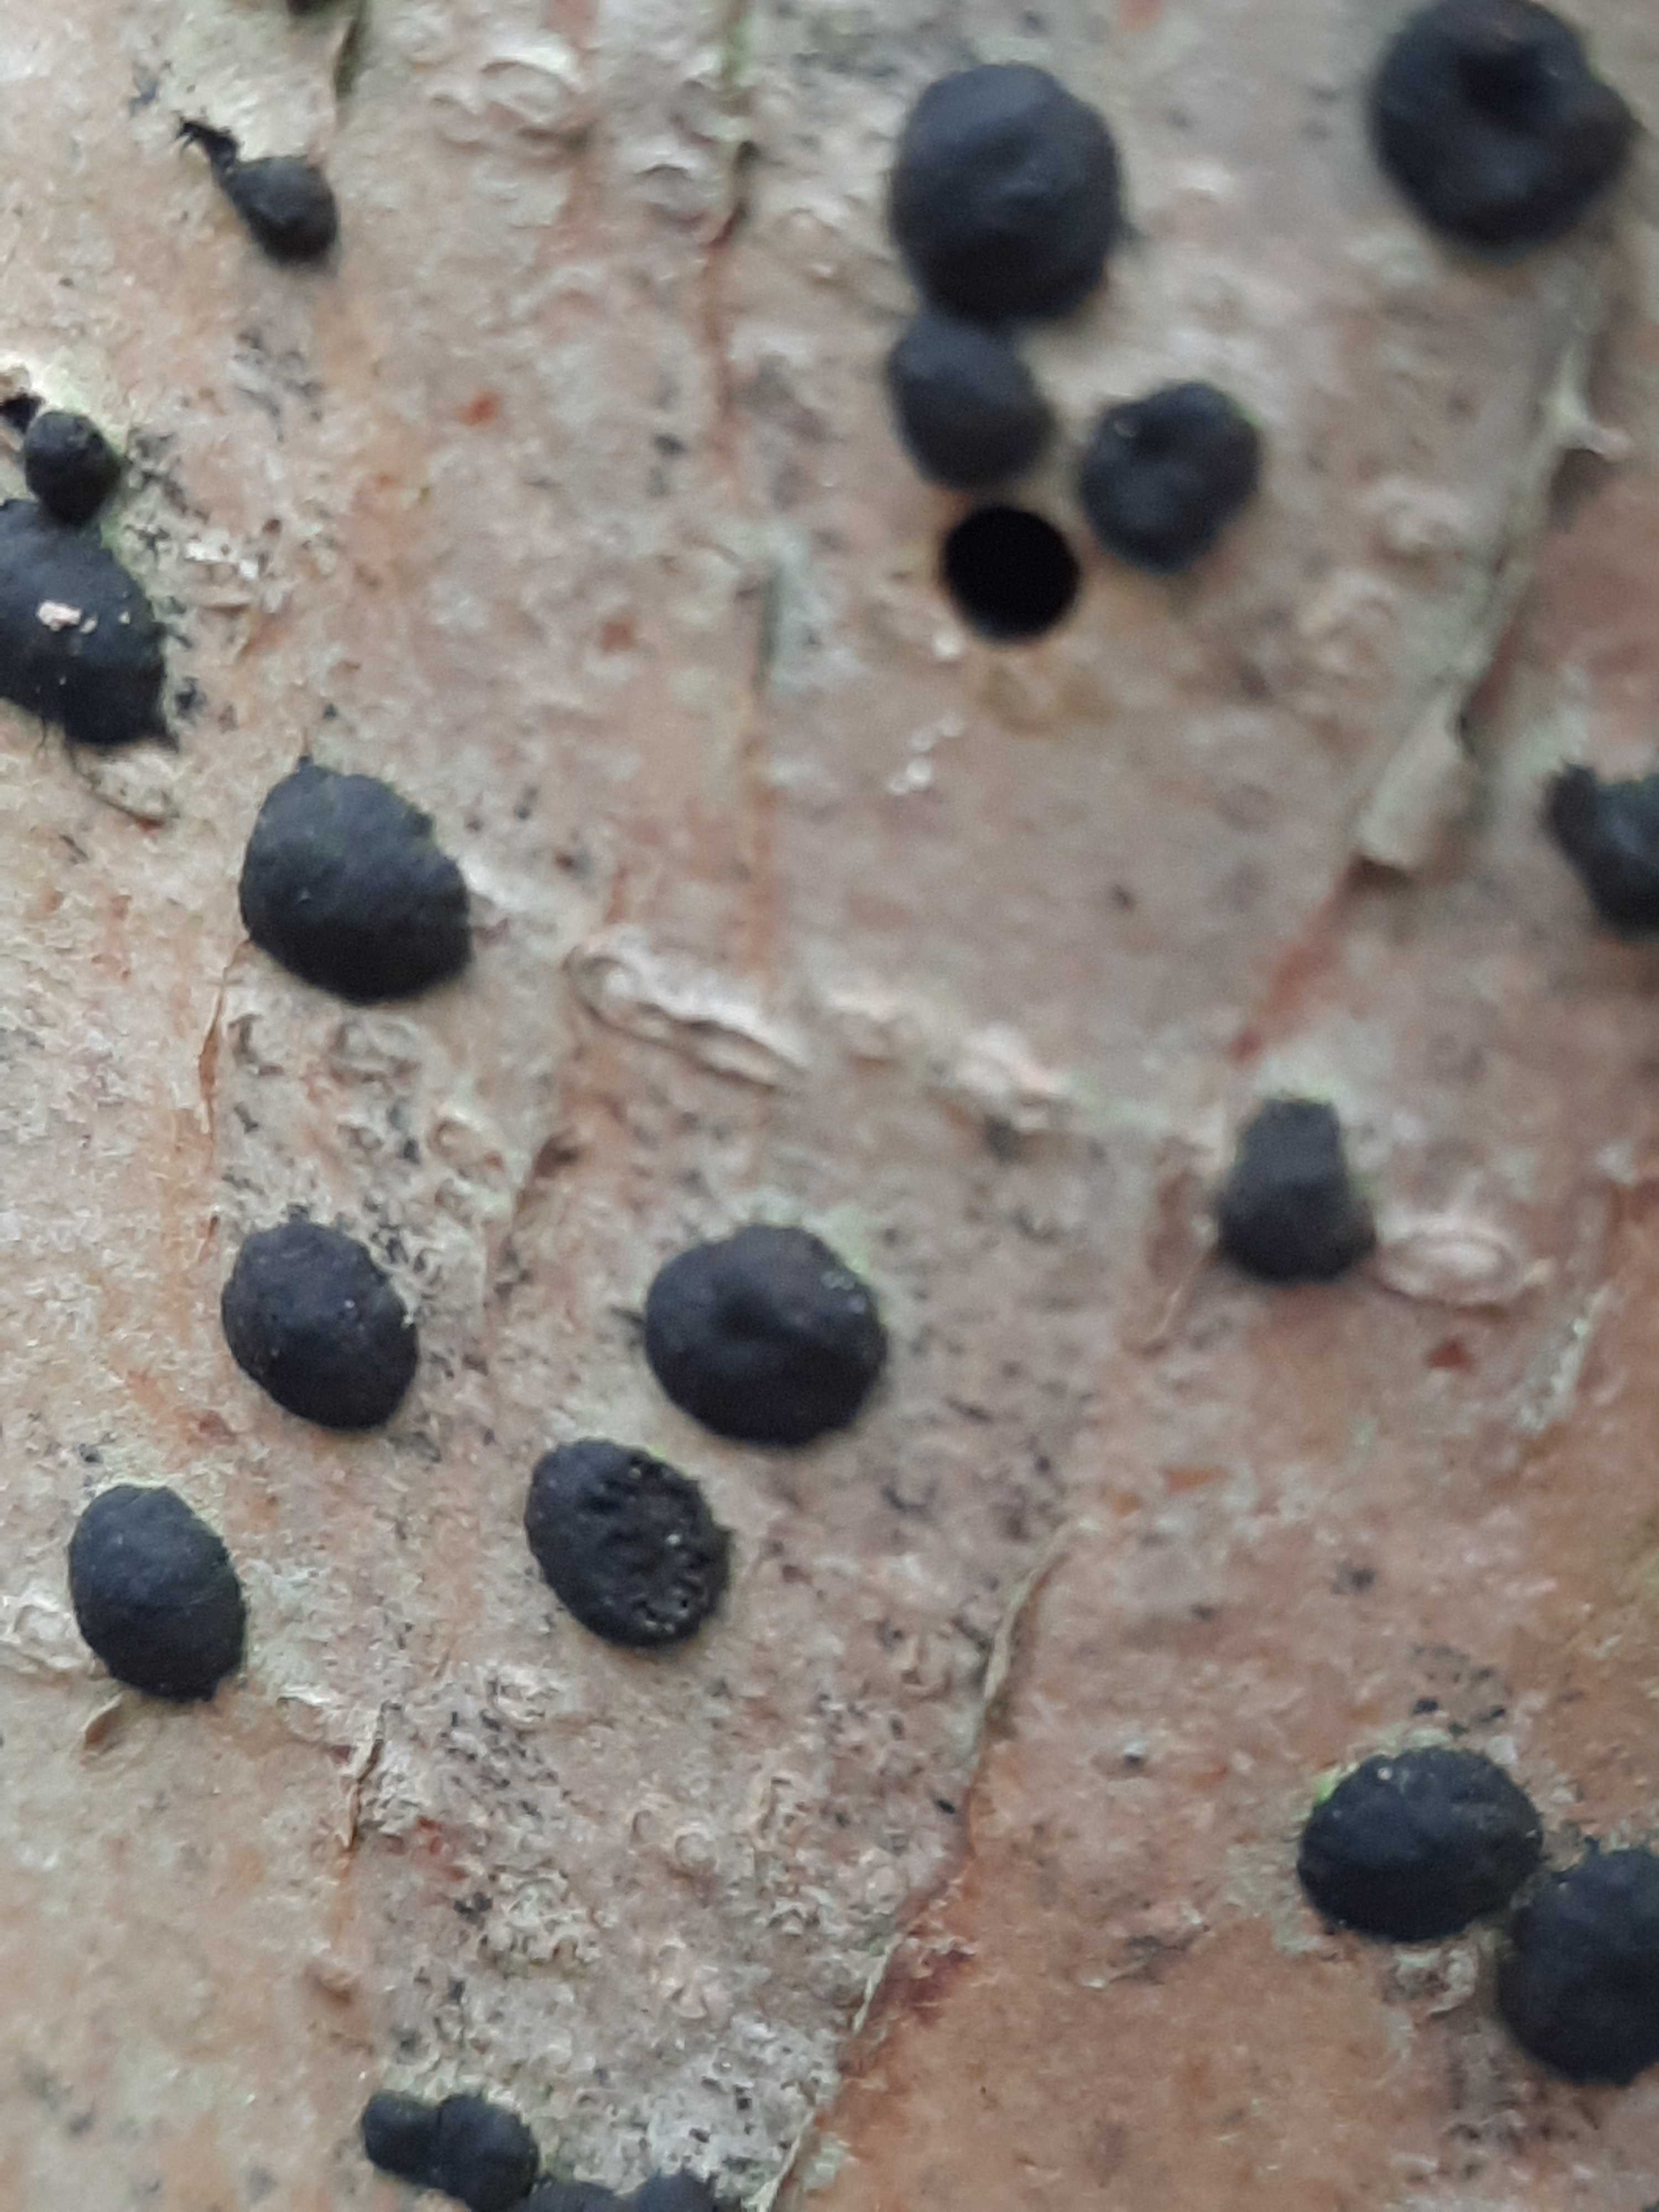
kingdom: Fungi
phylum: Ascomycota
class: Sordariomycetes
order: Xylariales
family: Hypoxylaceae
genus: Hypoxylon
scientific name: Hypoxylon fuscum
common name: kegleformet kulbær
